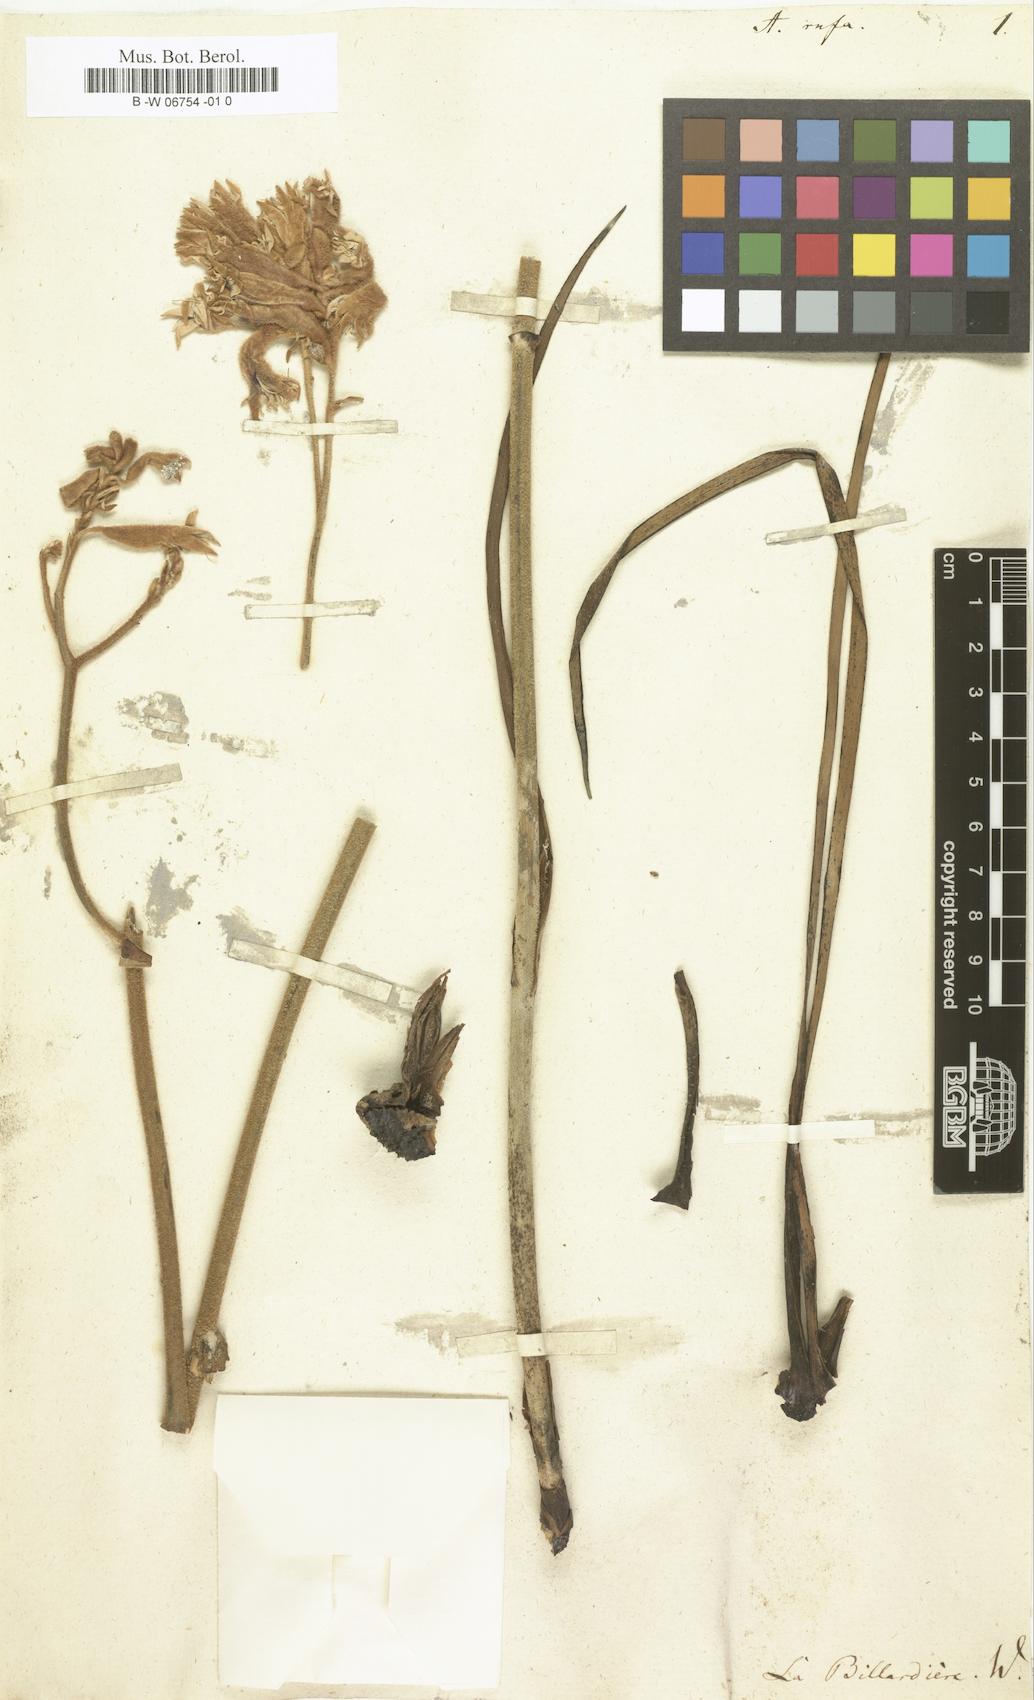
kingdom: Plantae
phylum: Tracheophyta
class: Liliopsida
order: Commelinales
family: Haemodoraceae
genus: Anigozanthos
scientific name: Anigozanthos rufus
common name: Red kangaroo-paw
